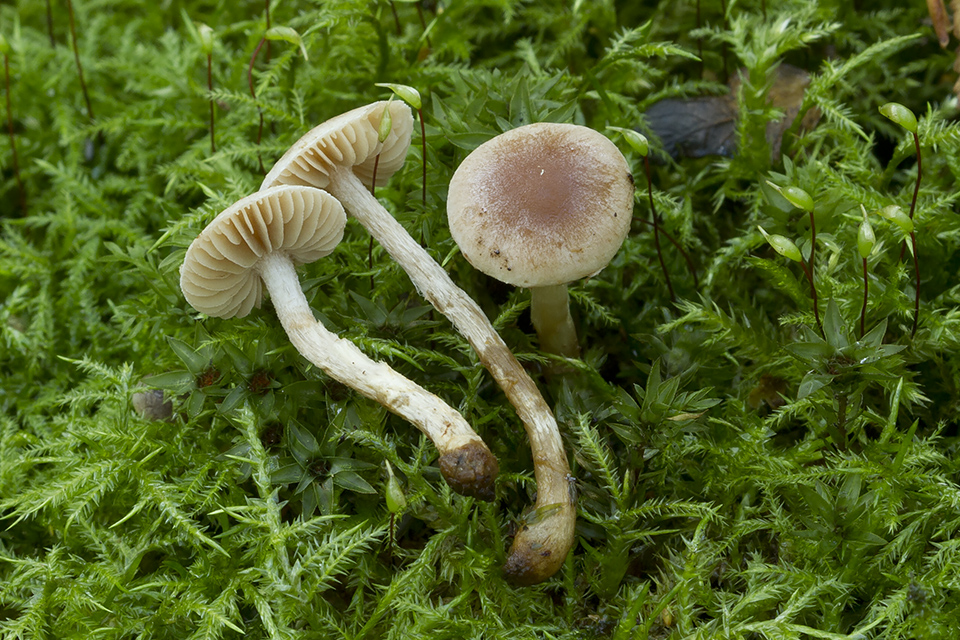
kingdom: Fungi
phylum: Basidiomycota
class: Agaricomycetes
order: Agaricales
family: Hymenogastraceae
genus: Hebeloma
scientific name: Hebeloma
